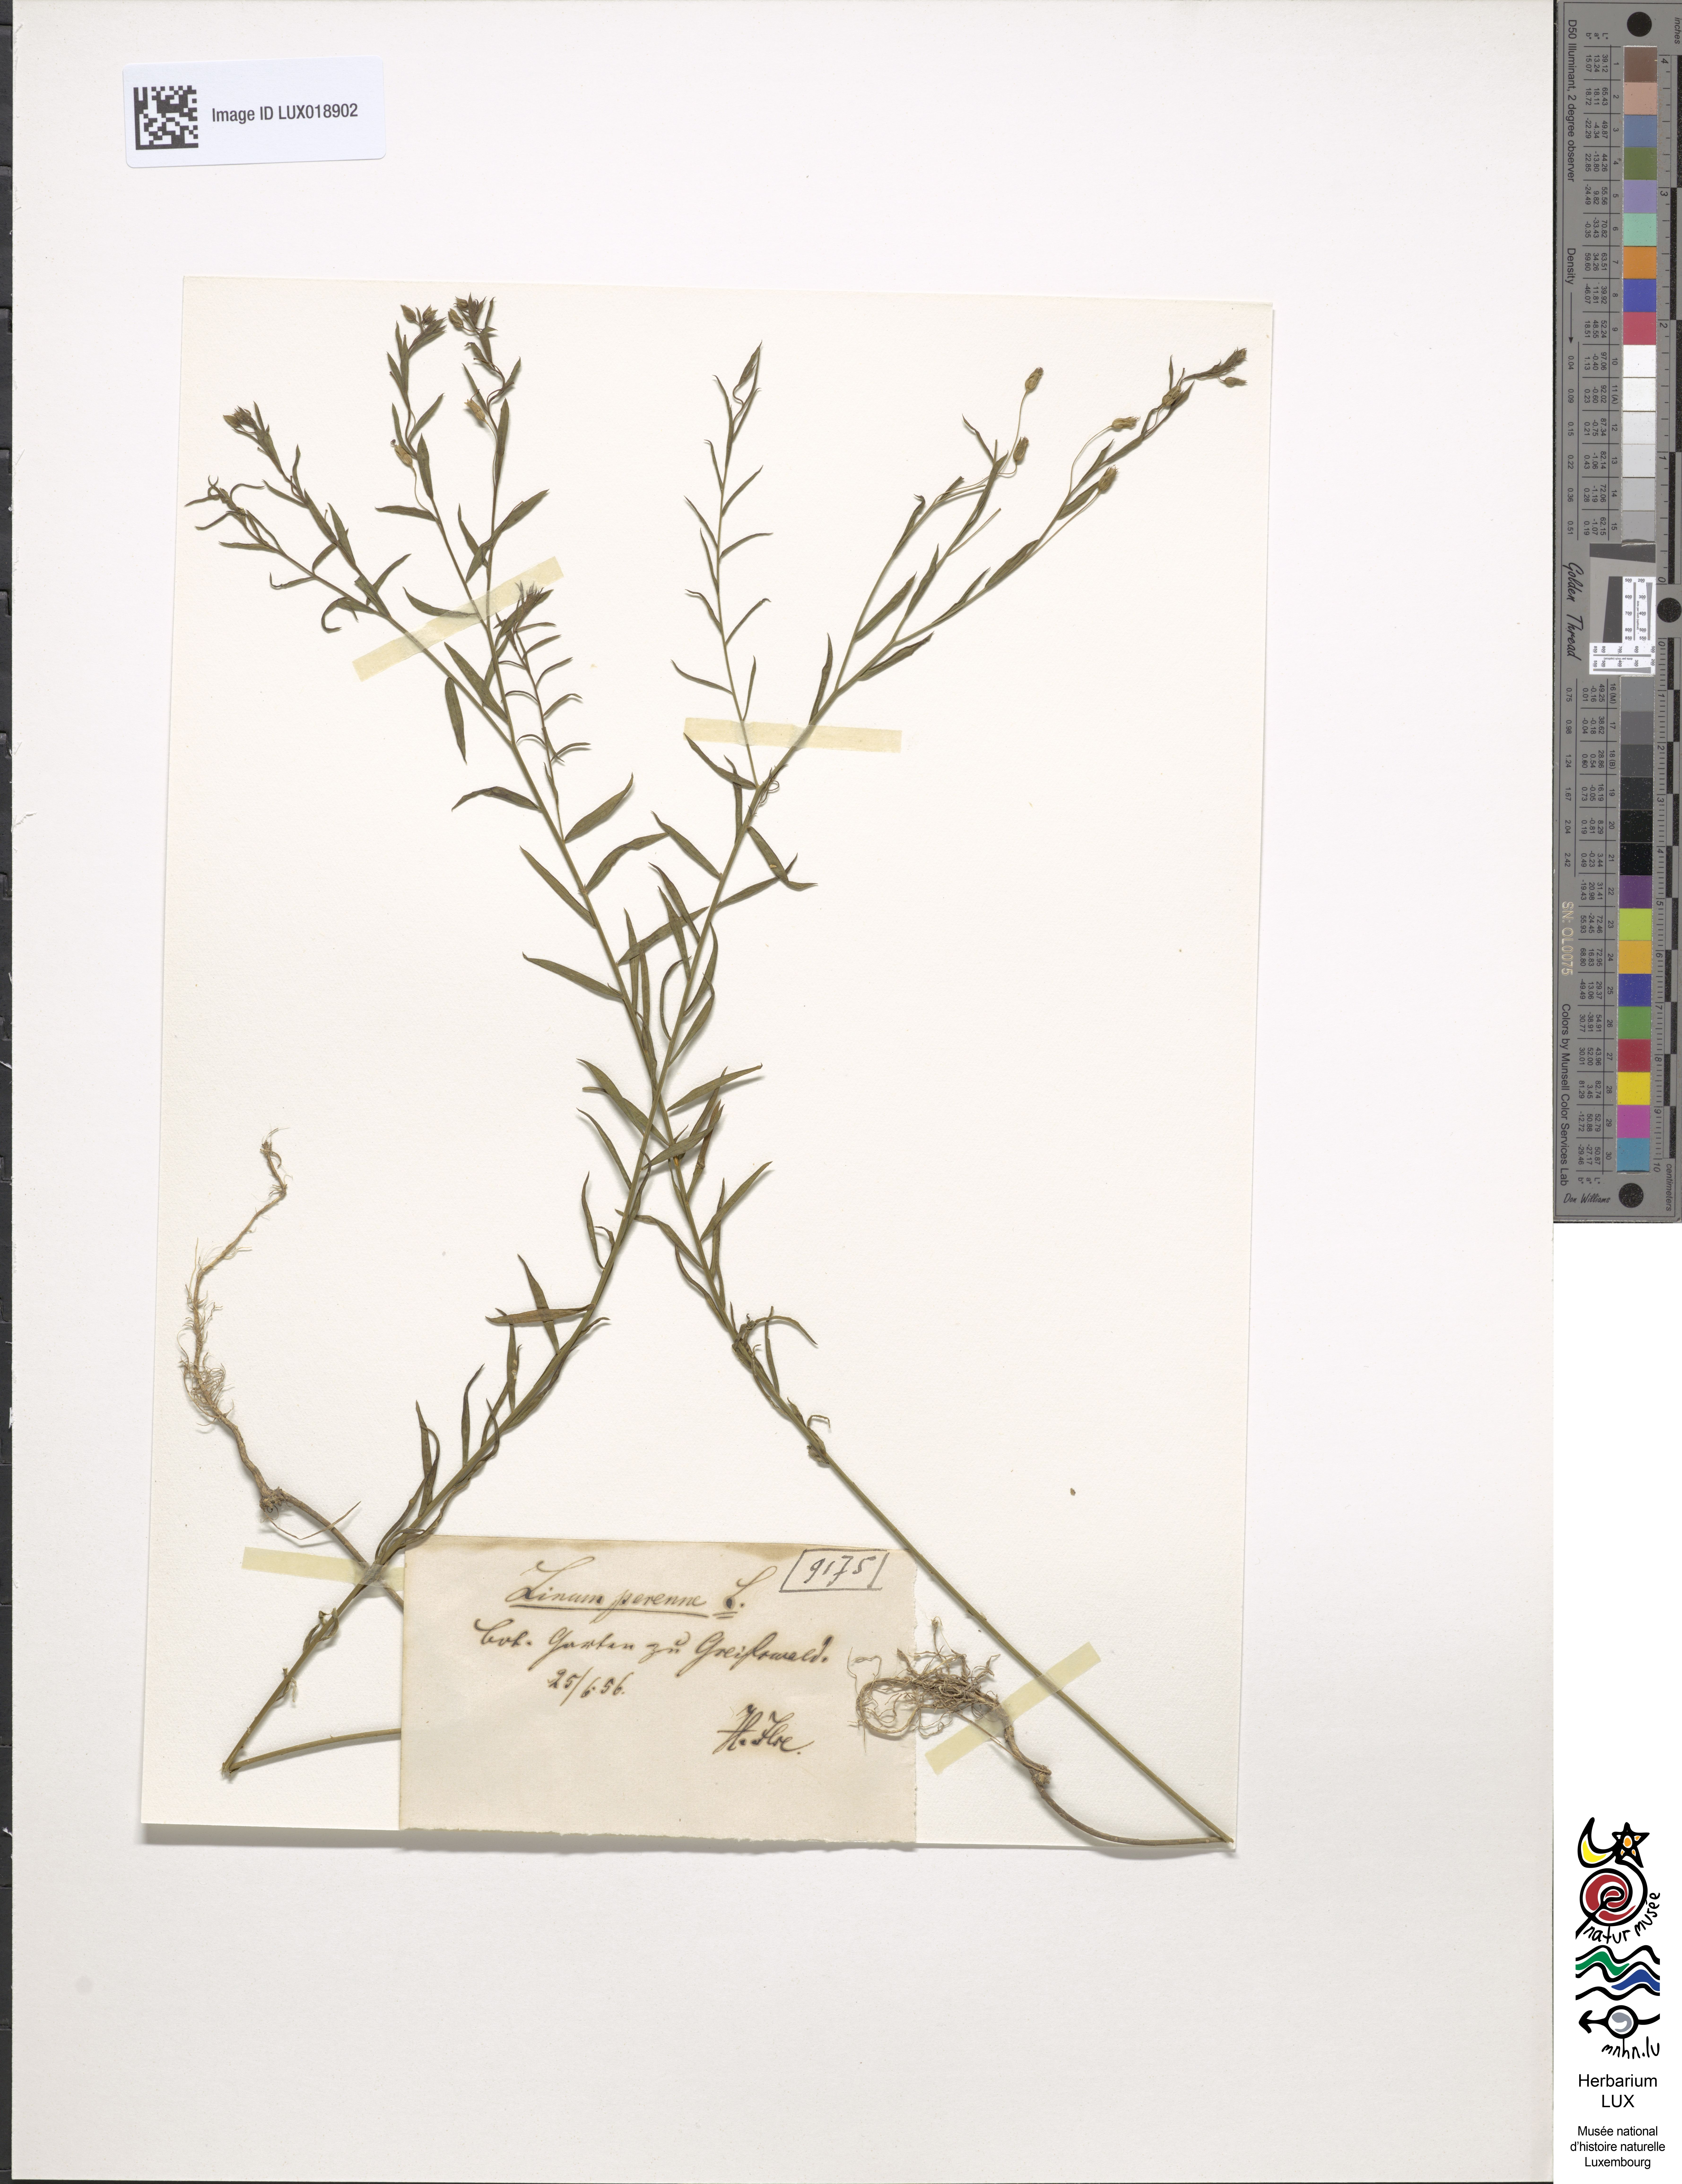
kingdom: Plantae
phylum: Tracheophyta
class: Magnoliopsida
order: Malpighiales
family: Linaceae
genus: Linum
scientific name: Linum perenne
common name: Blue flax
